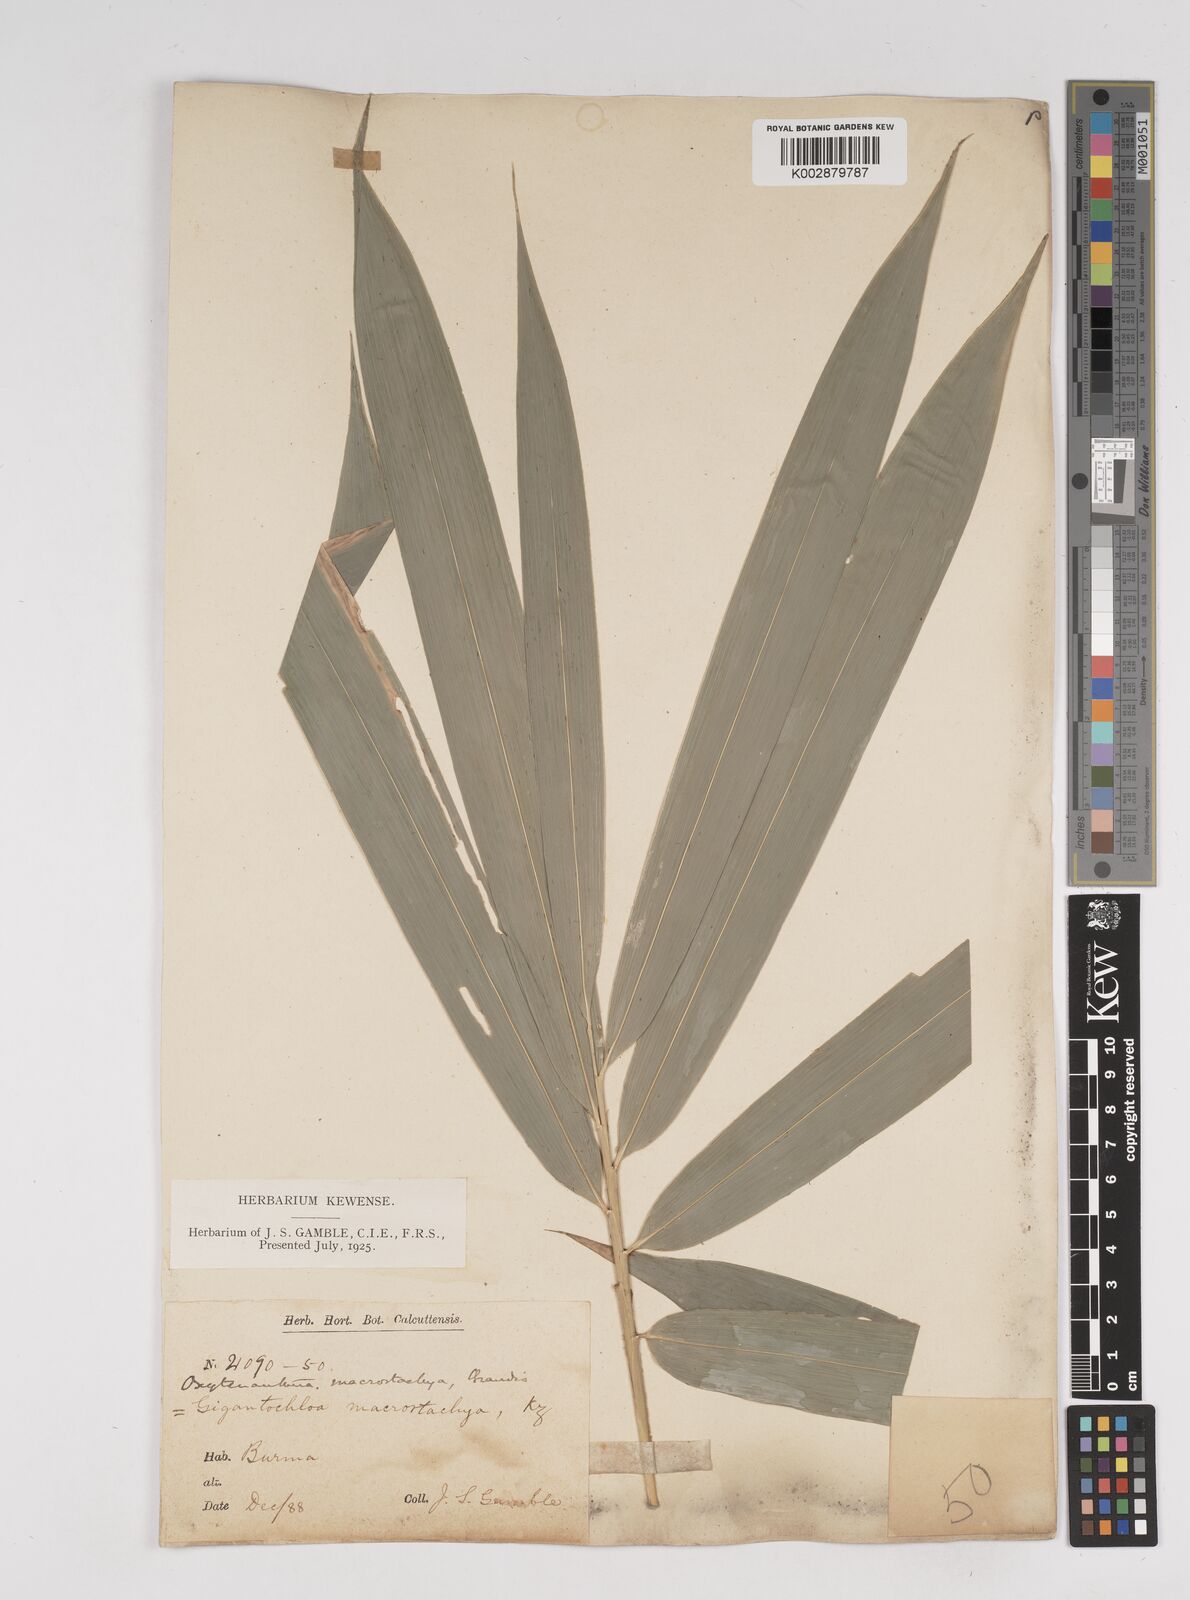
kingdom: Plantae
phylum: Tracheophyta
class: Liliopsida
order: Poales
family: Poaceae
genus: Gigantochloa
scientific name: Gigantochloa macrostachya
